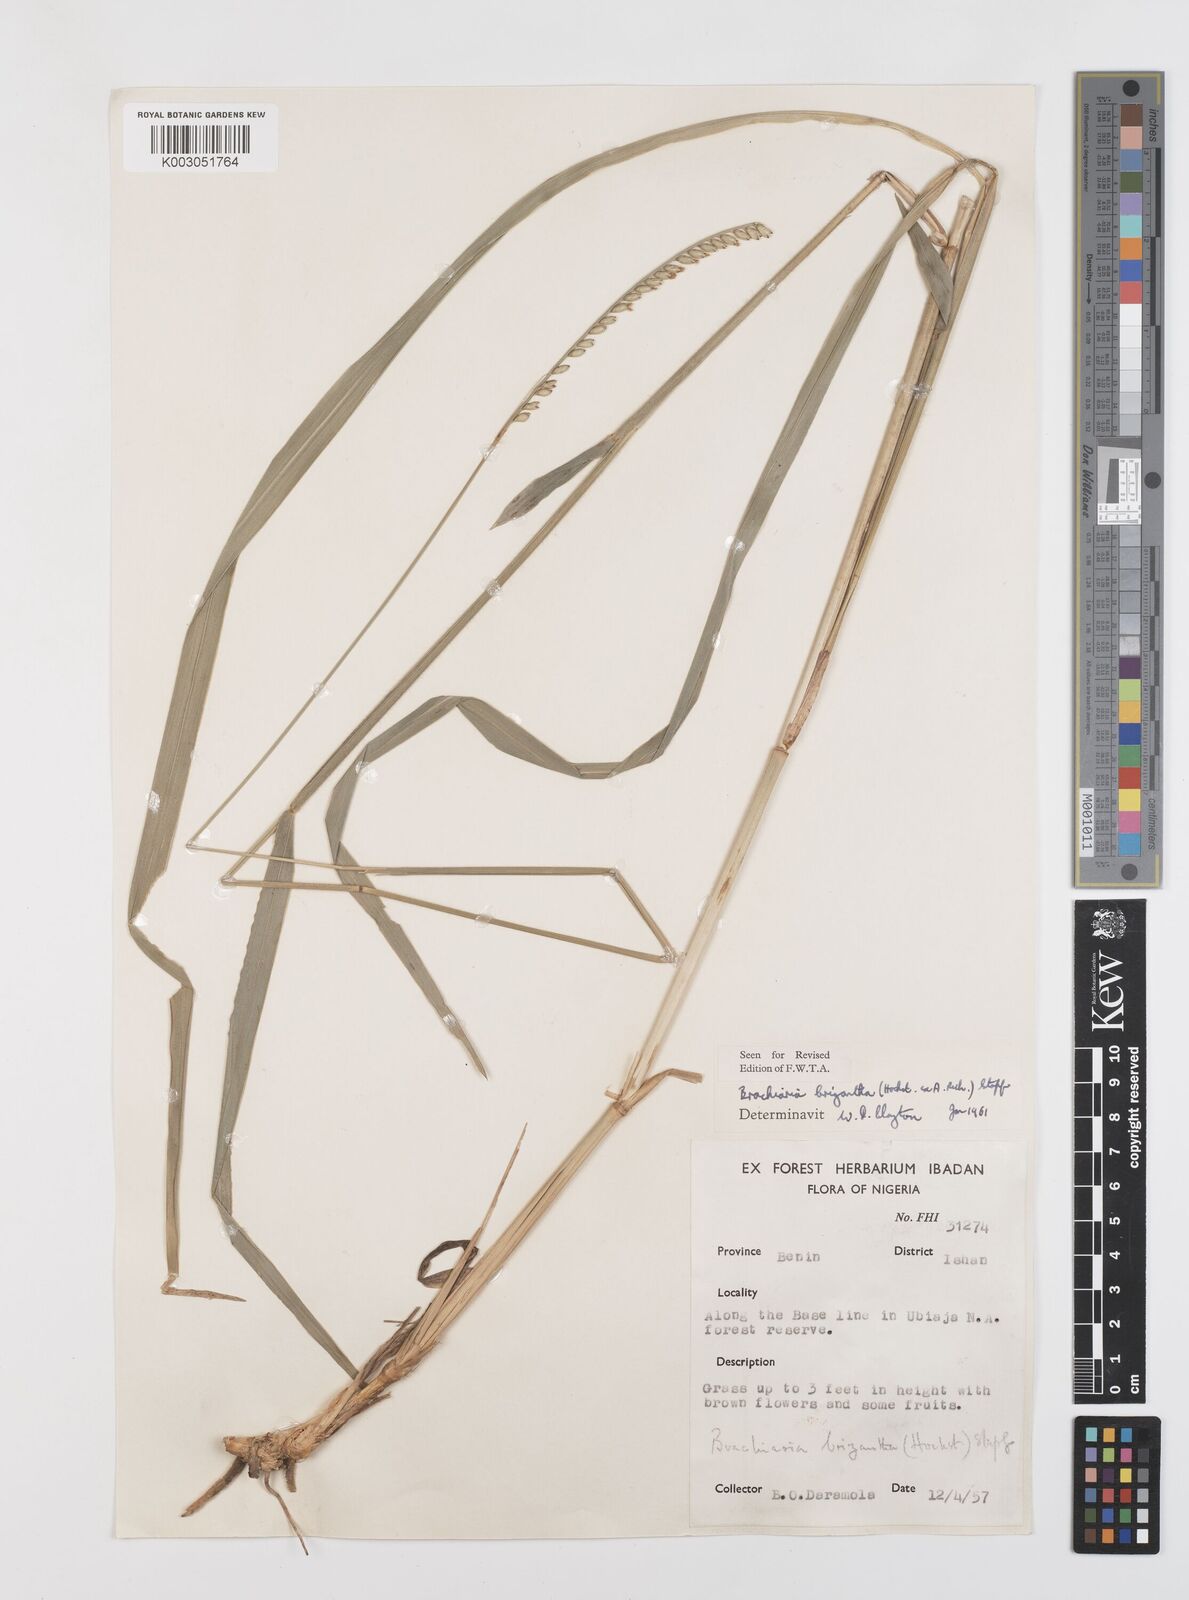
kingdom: Plantae
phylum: Tracheophyta
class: Liliopsida
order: Poales
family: Poaceae
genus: Urochloa
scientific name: Urochloa brizantha
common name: Palisade signalgrass
